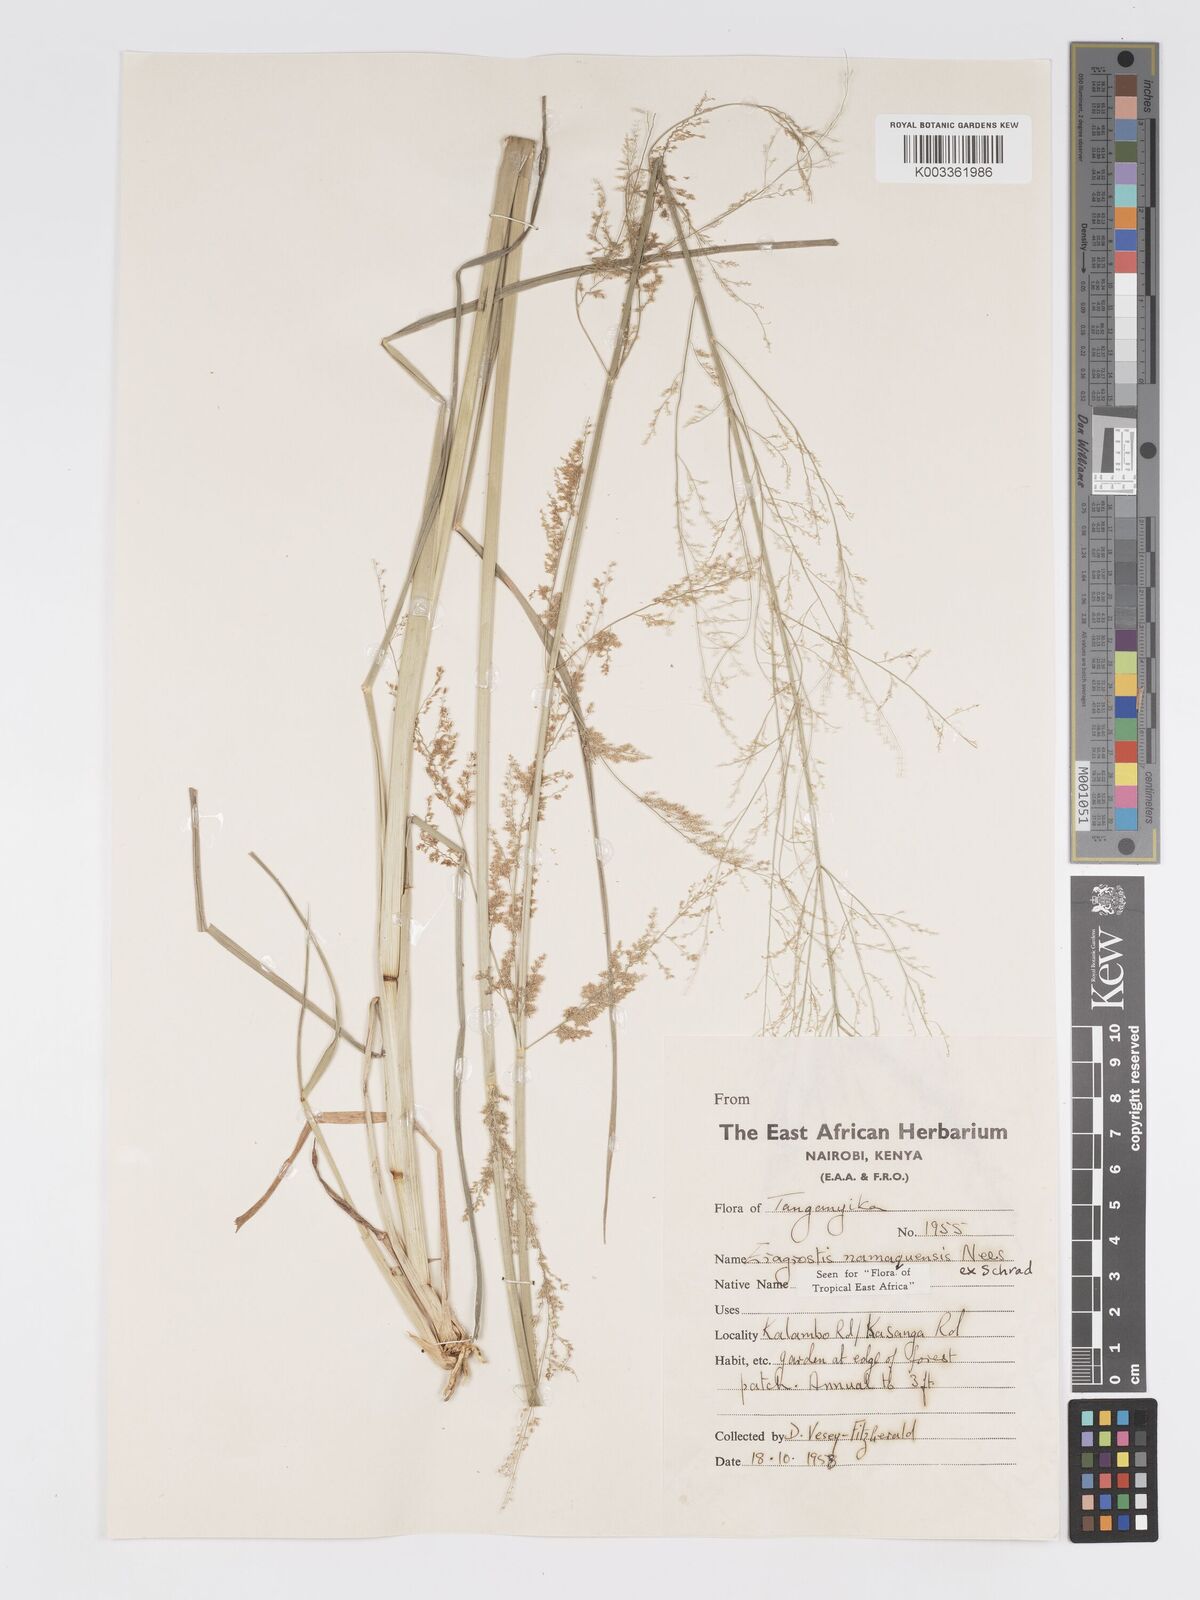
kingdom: Plantae
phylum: Tracheophyta
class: Liliopsida
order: Poales
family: Poaceae
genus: Eragrostis
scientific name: Eragrostis japonica
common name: Pond lovegrass
